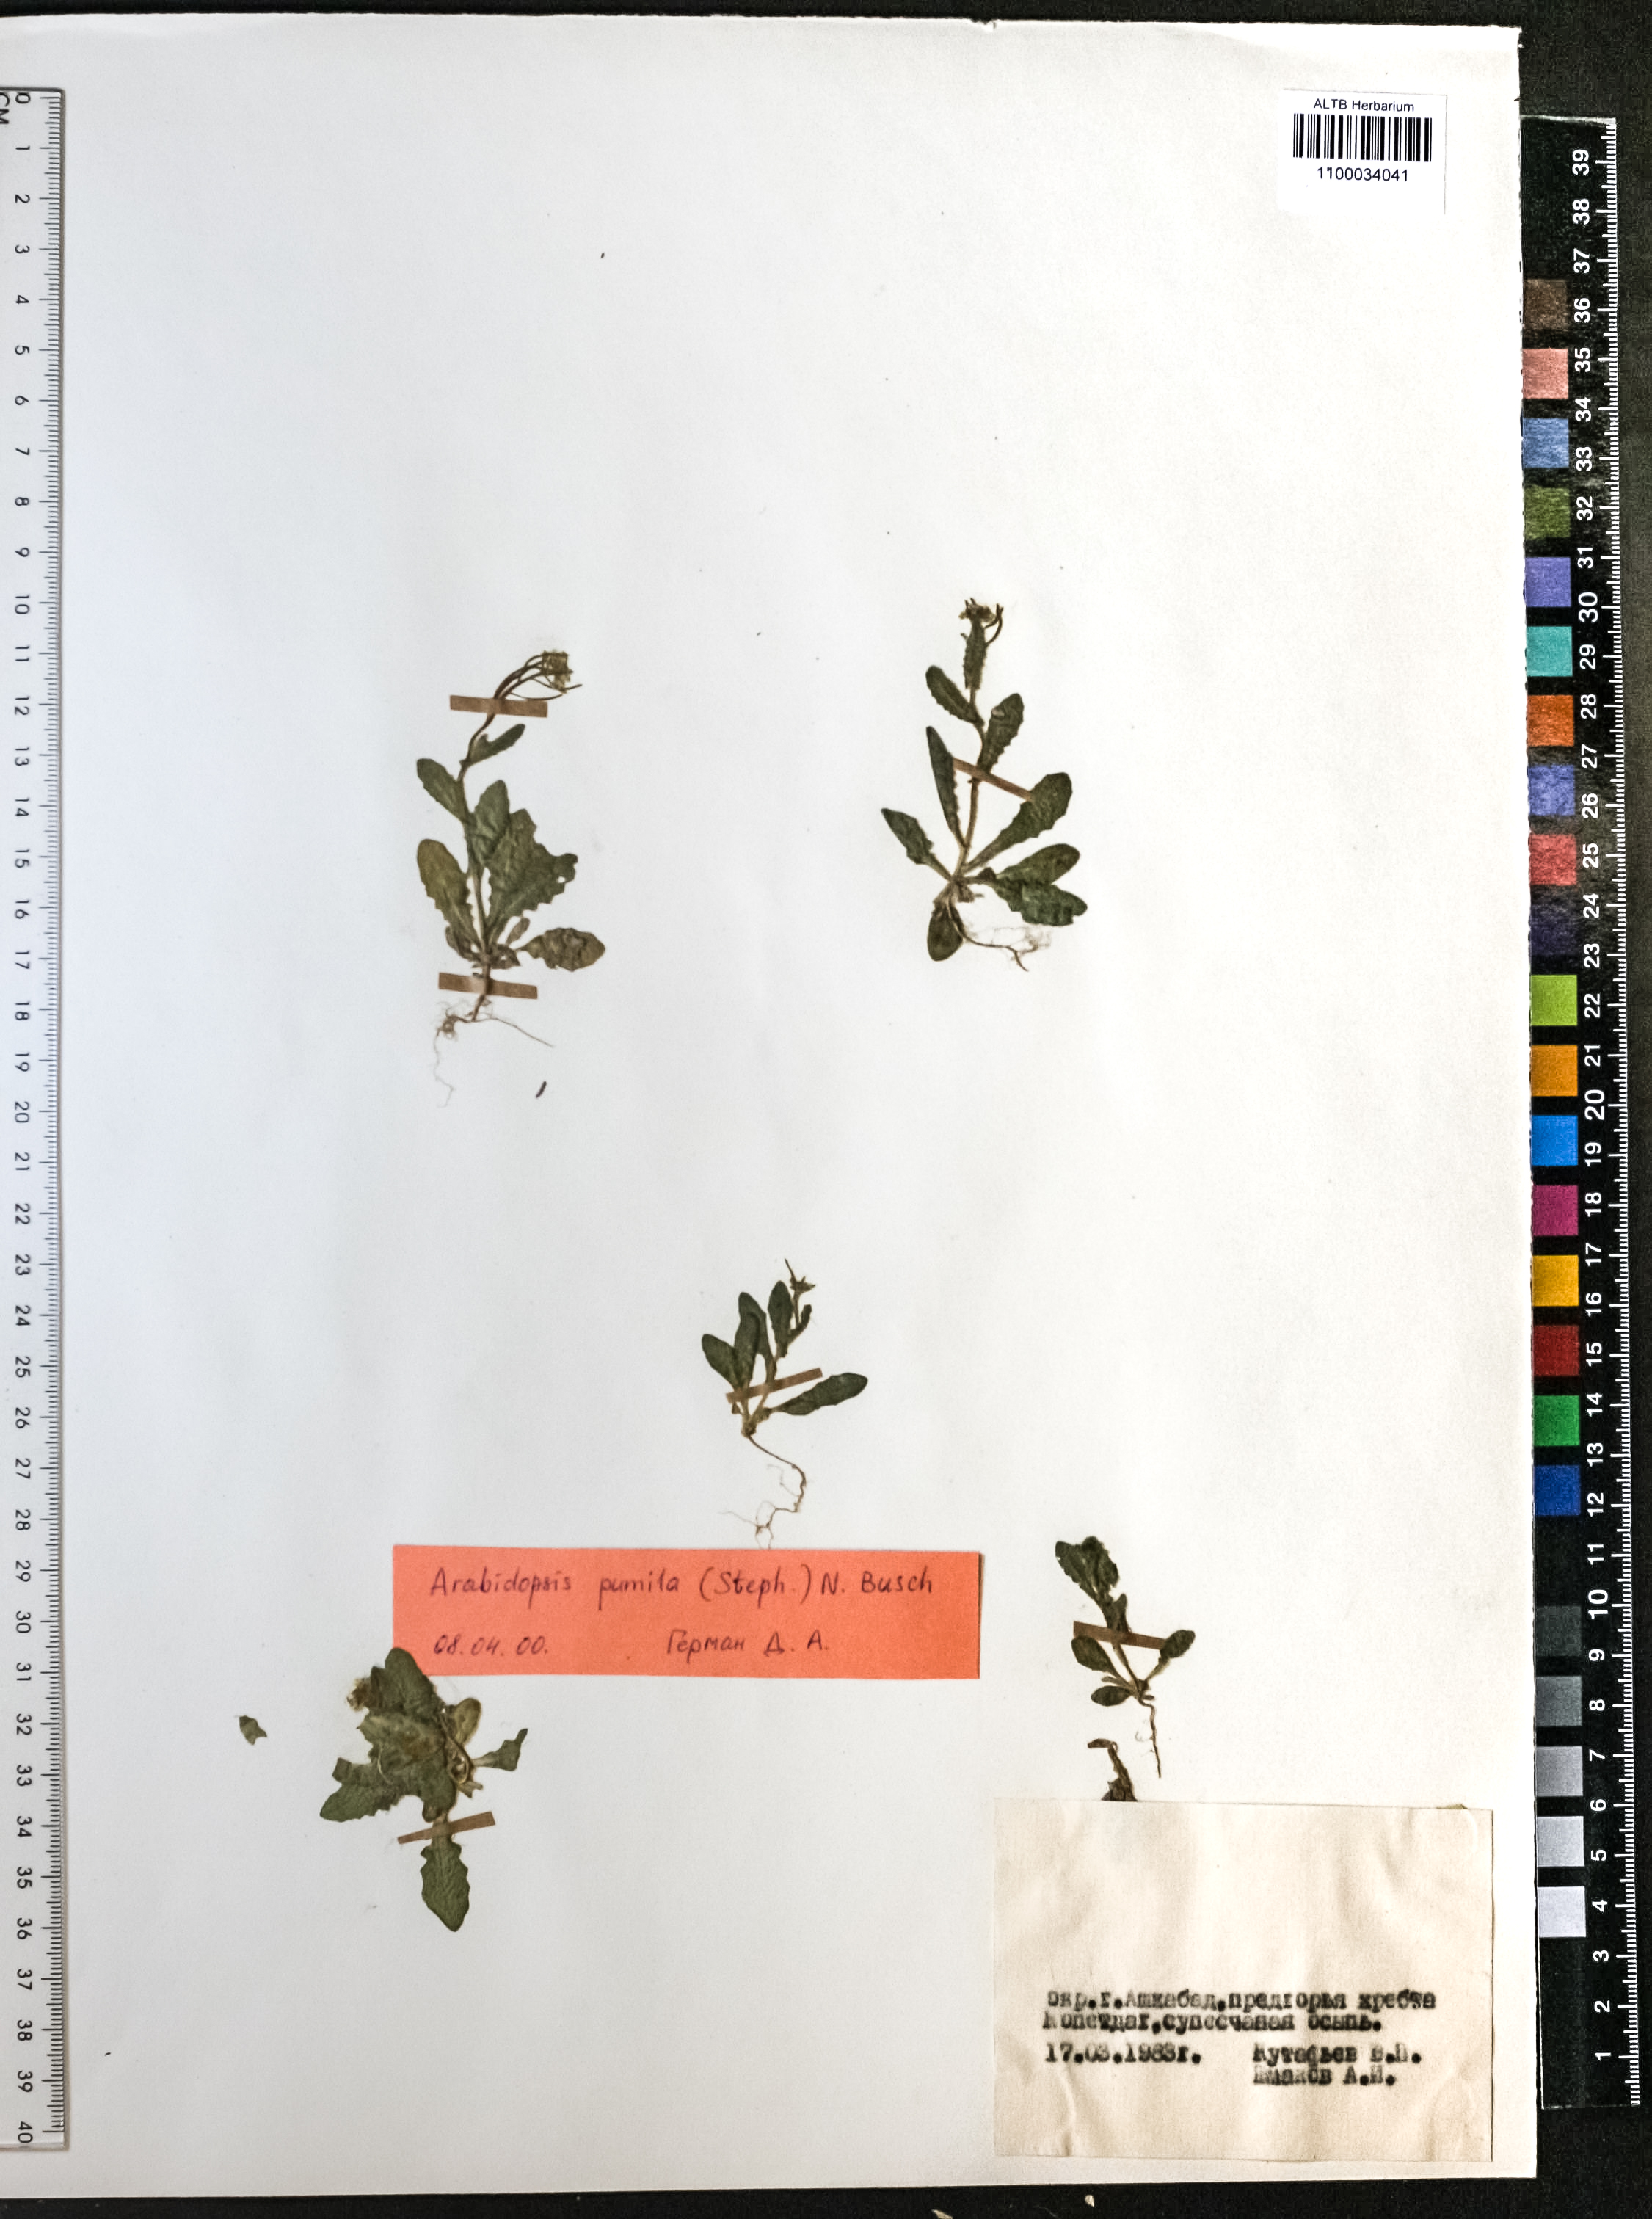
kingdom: Plantae
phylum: Tracheophyta
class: Magnoliopsida
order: Brassicales
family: Brassicaceae
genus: Sisymbrium
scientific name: Sisymbrium pumilum
